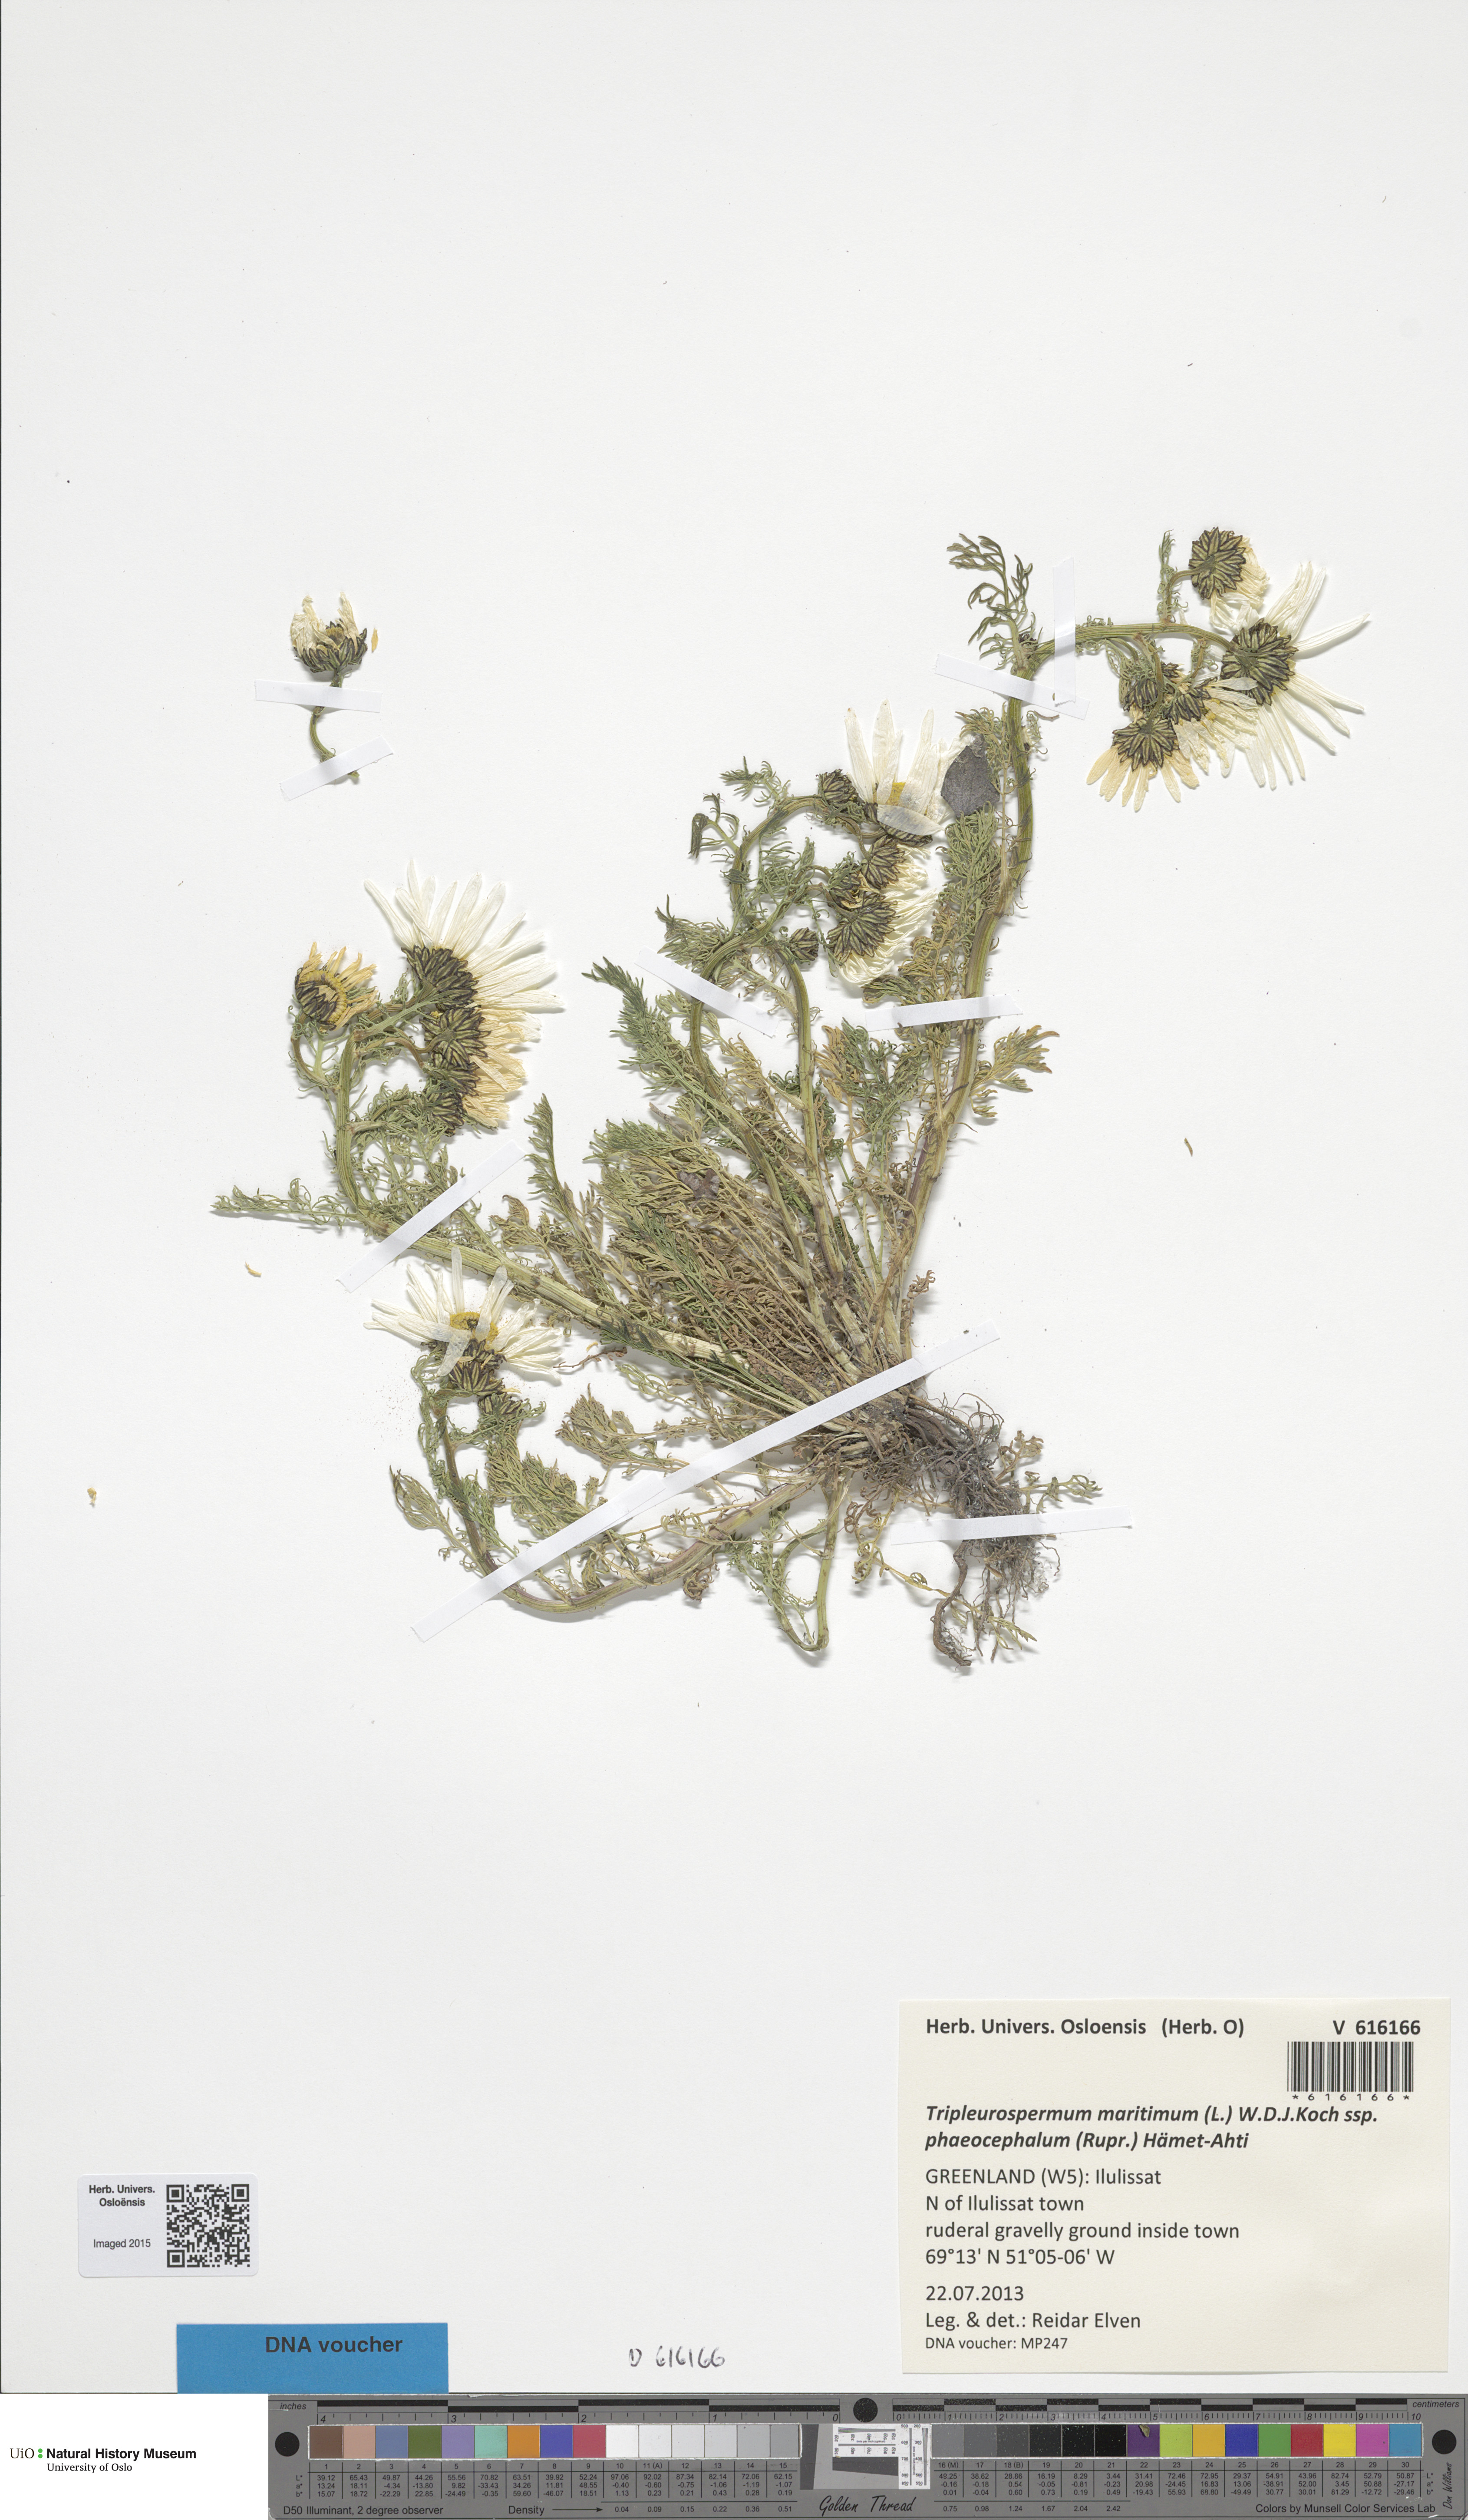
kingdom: Plantae
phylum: Tracheophyta
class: Magnoliopsida
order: Asterales
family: Asteraceae
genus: Tripleurospermum
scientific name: Tripleurospermum hookeri
